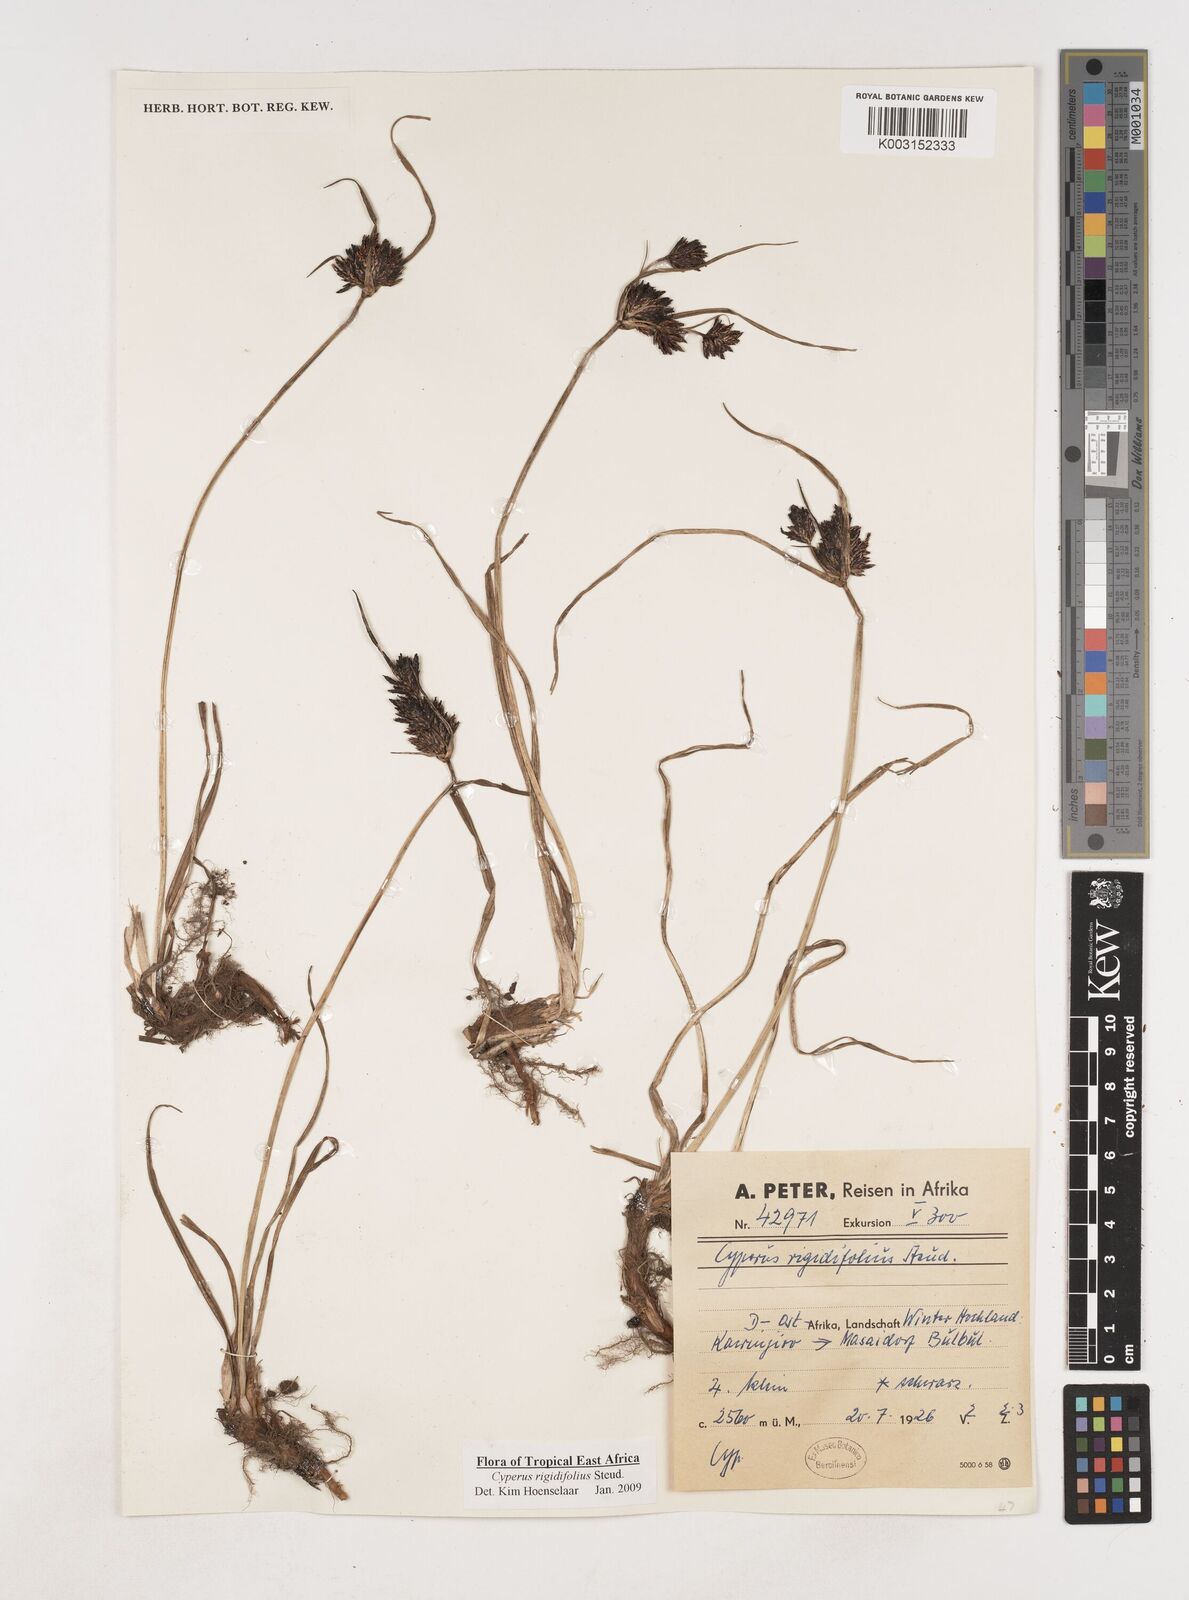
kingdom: Plantae
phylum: Tracheophyta
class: Liliopsida
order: Poales
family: Cyperaceae
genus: Cyperus
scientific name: Cyperus rigidifolius
